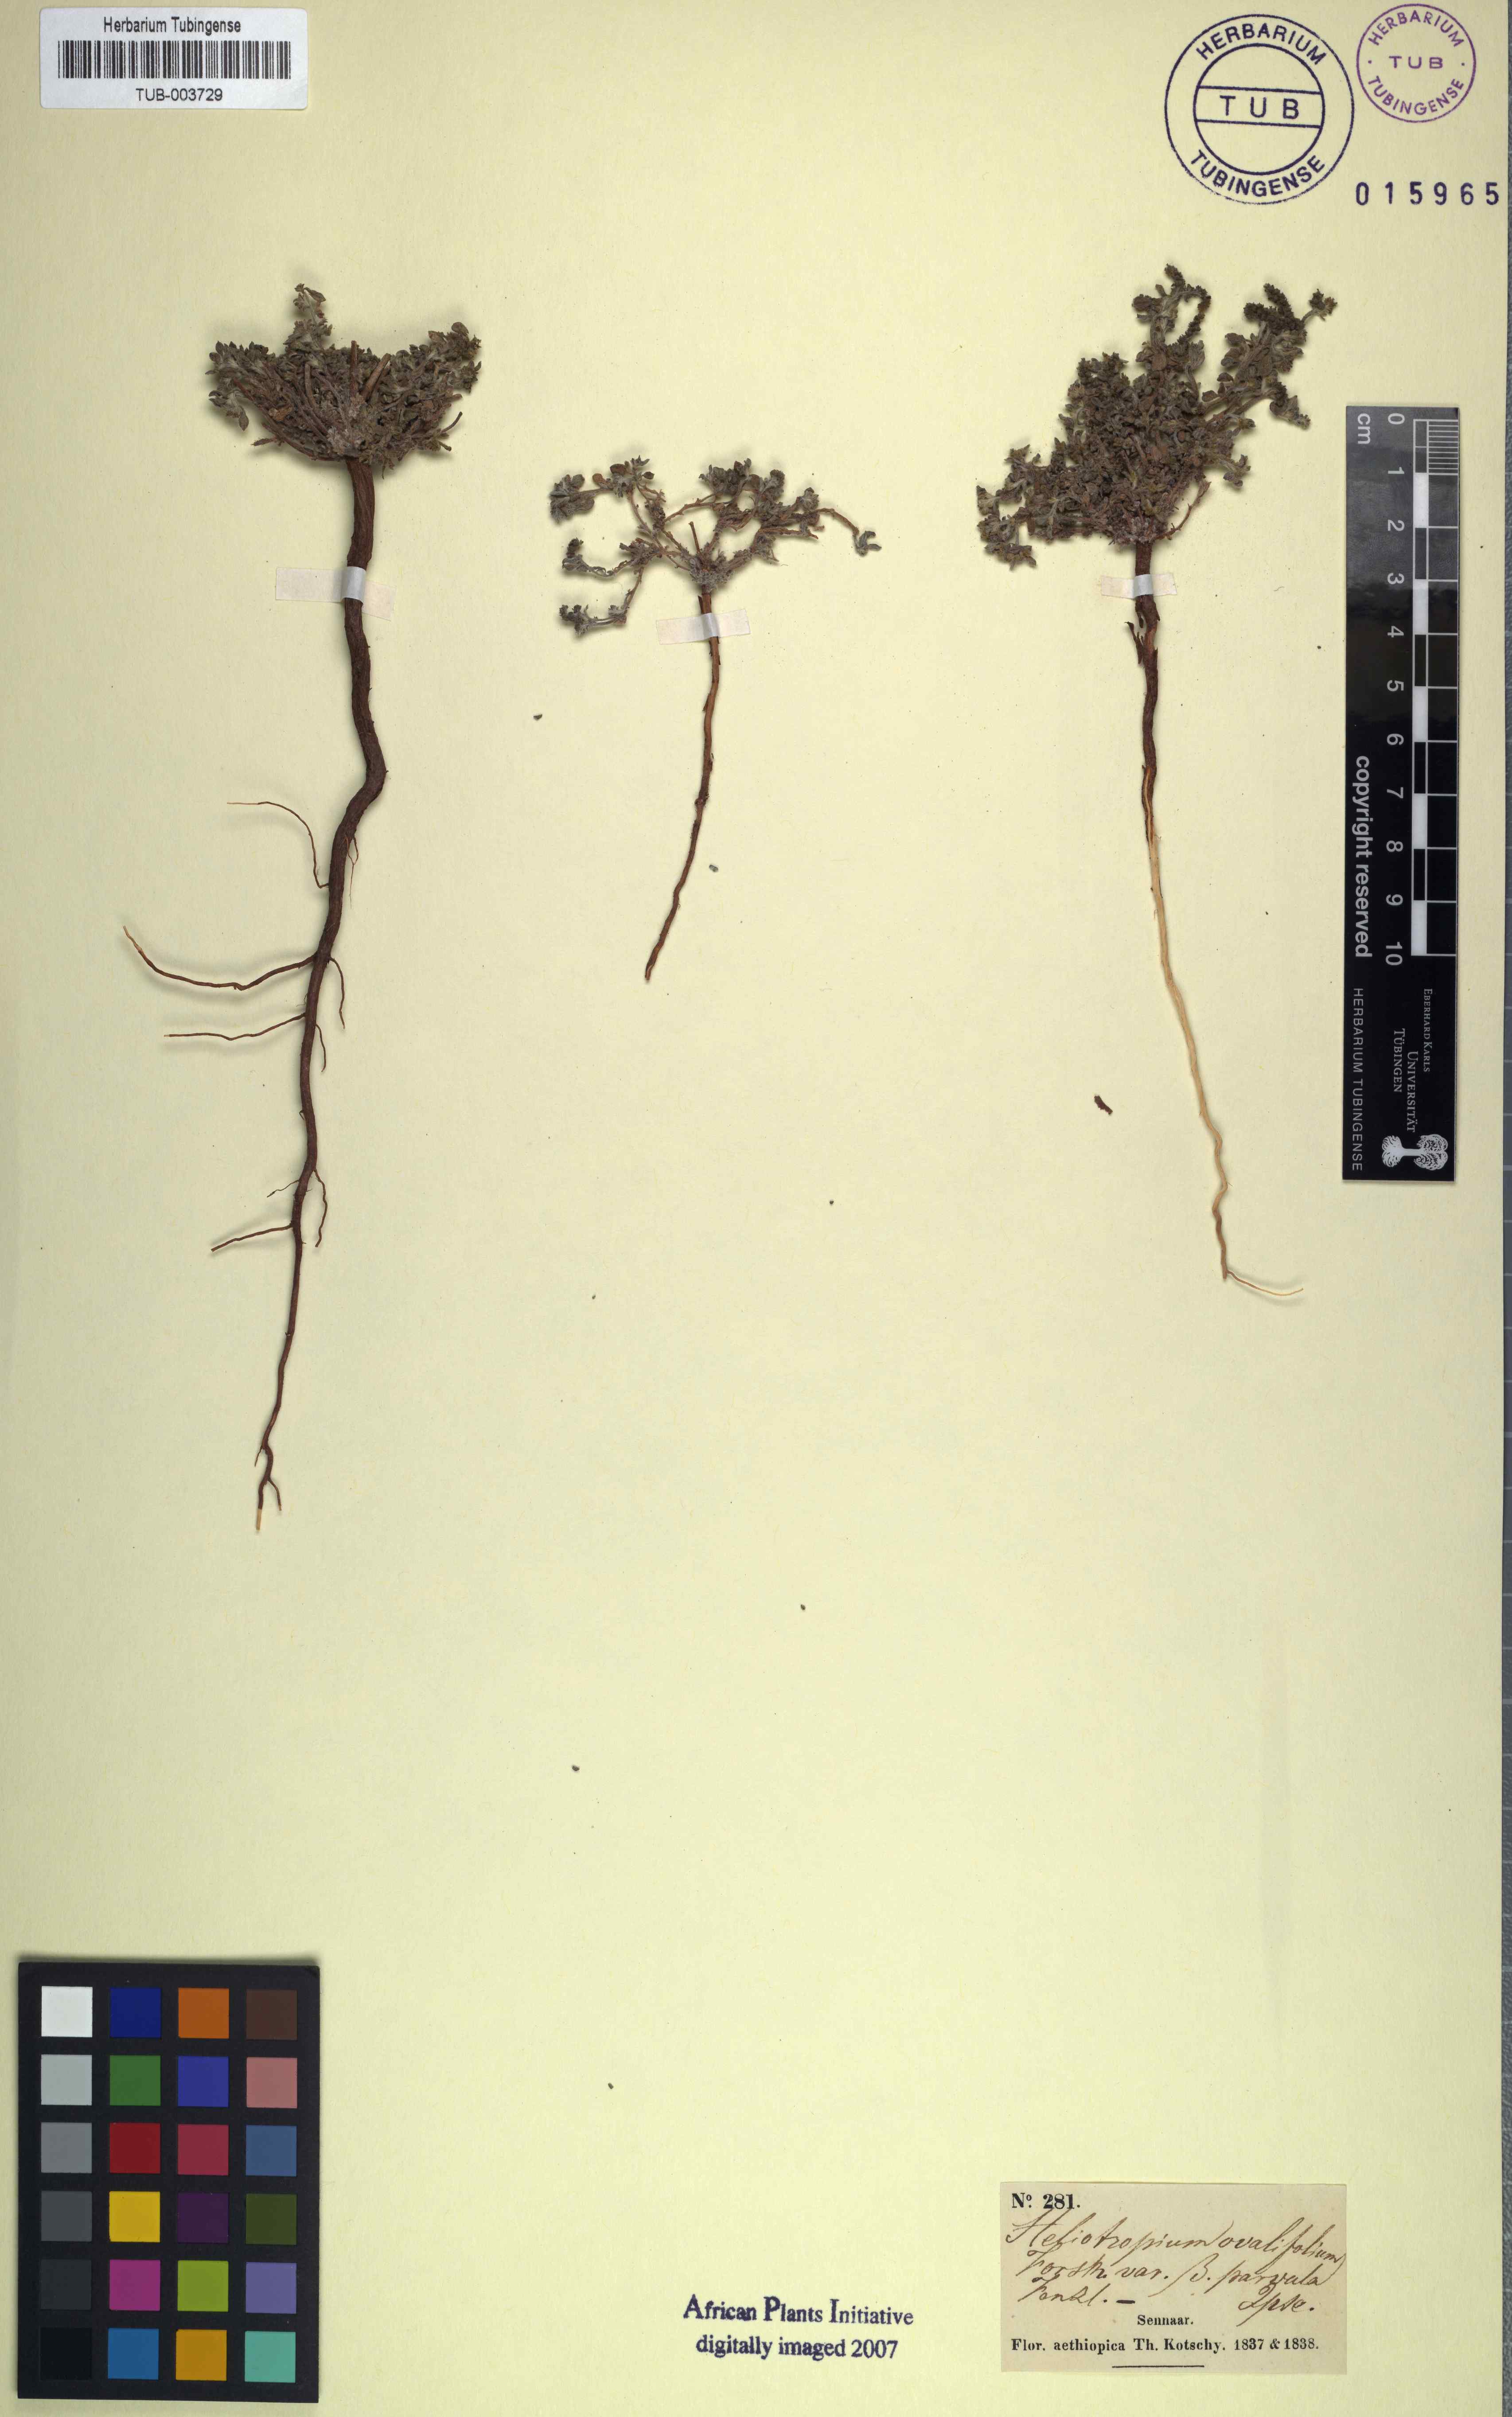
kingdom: Plantae
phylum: Tracheophyta
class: Magnoliopsida
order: Boraginales
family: Heliotropiaceae
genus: Euploca
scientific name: Euploca ovalifolia
